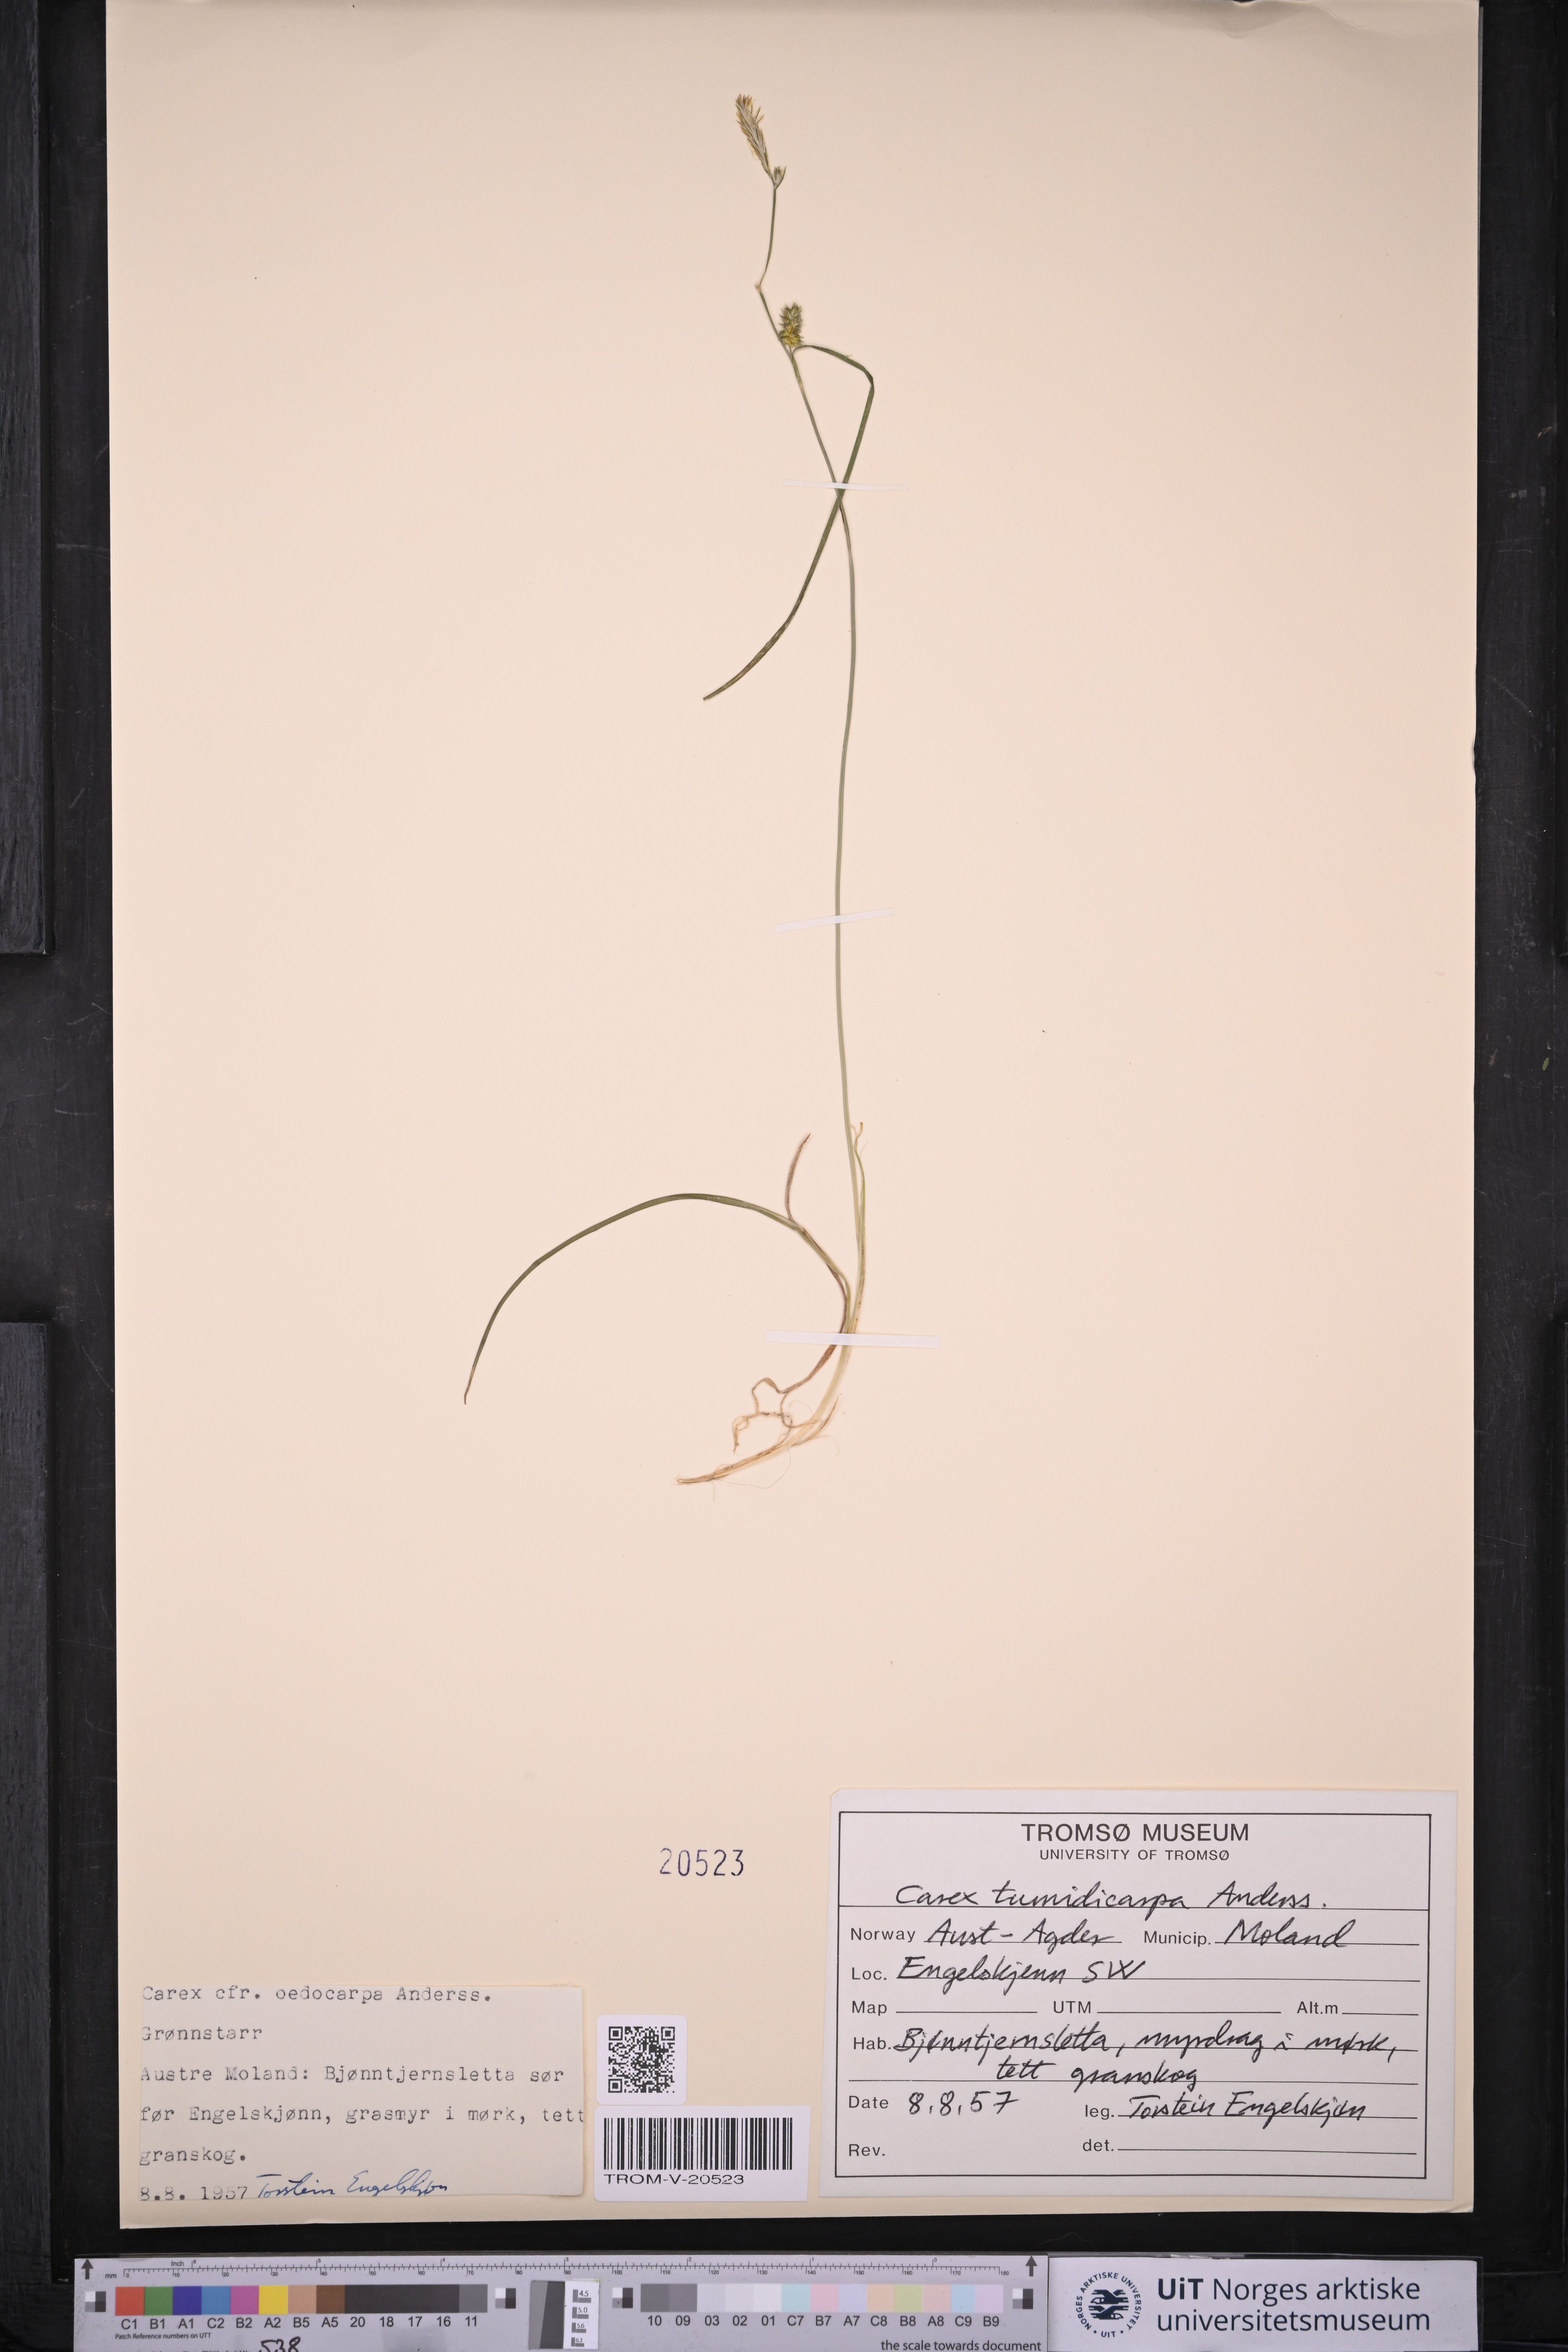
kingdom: Plantae
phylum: Tracheophyta
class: Liliopsida
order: Poales
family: Cyperaceae
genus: Carex
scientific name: Carex demissa
